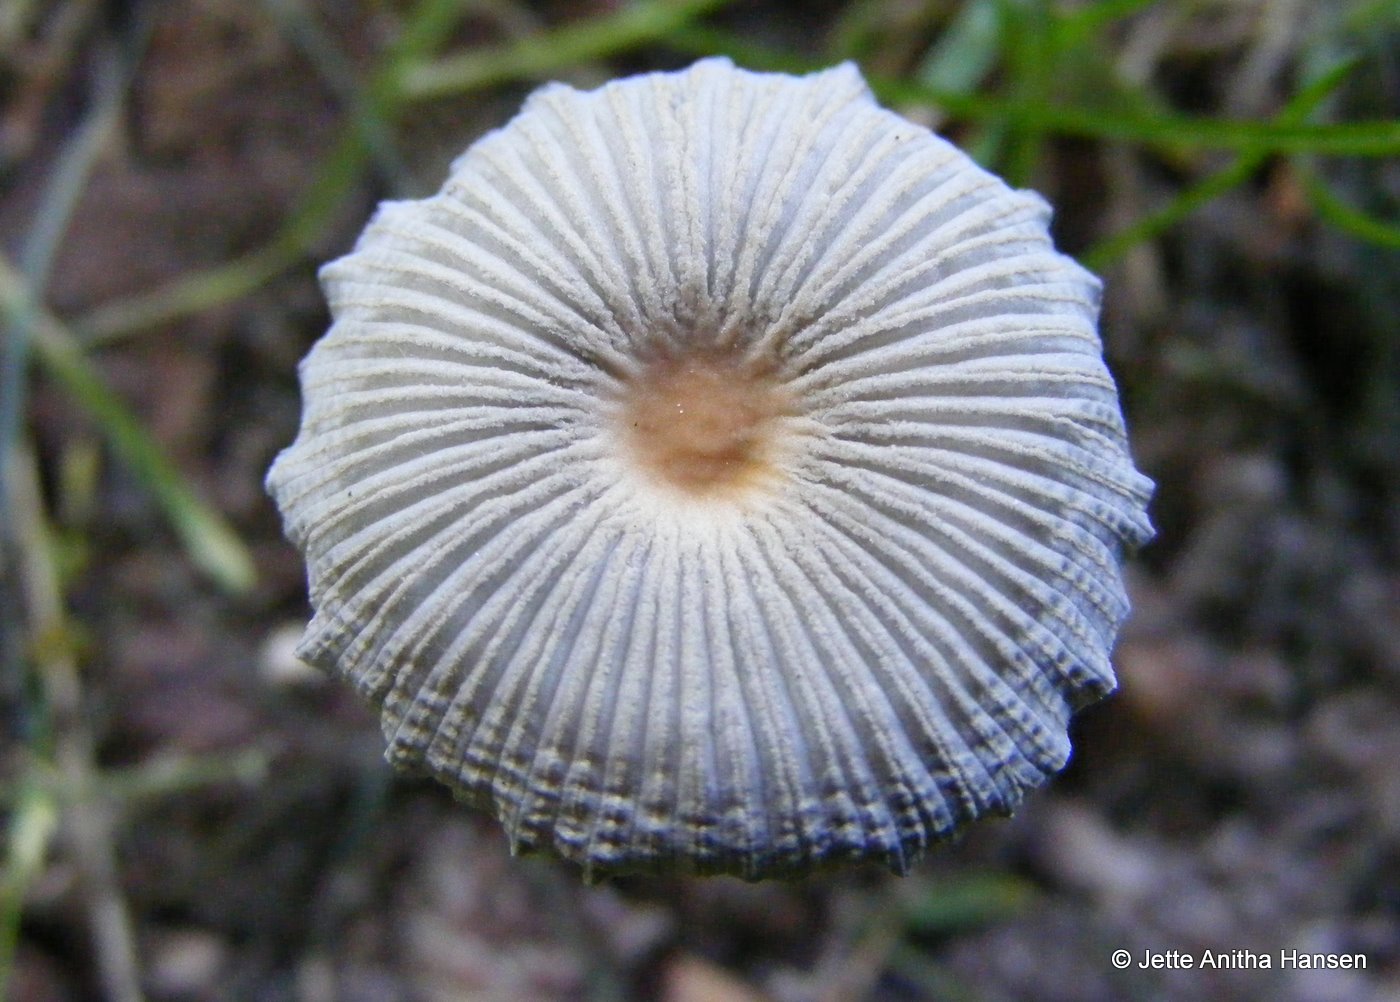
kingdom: Fungi
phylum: Basidiomycota
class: Agaricomycetes
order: Agaricales
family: Psathyrellaceae
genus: Parasola
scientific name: Parasola lactea
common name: glat hjulhat
